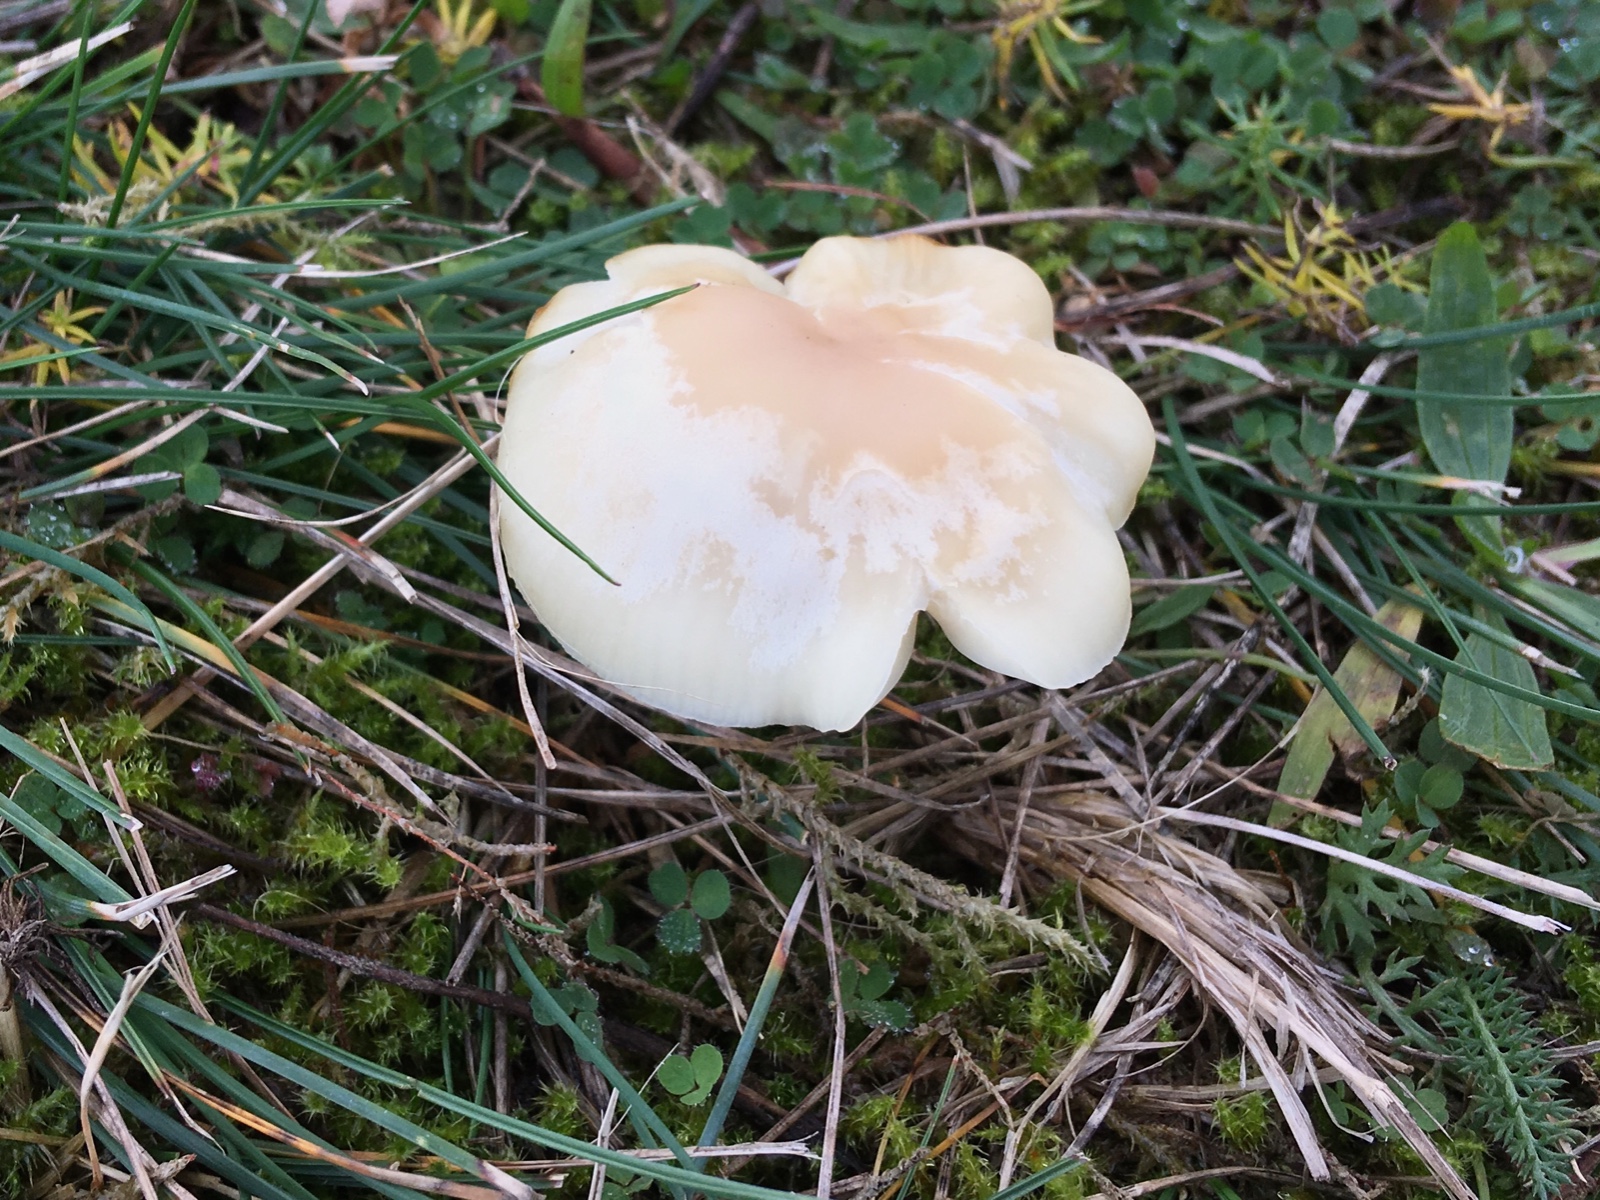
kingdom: Fungi
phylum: Basidiomycota
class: Agaricomycetes
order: Agaricales
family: Hygrophoraceae
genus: Cuphophyllus
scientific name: Cuphophyllus virgineus
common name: snehvid vokshat
